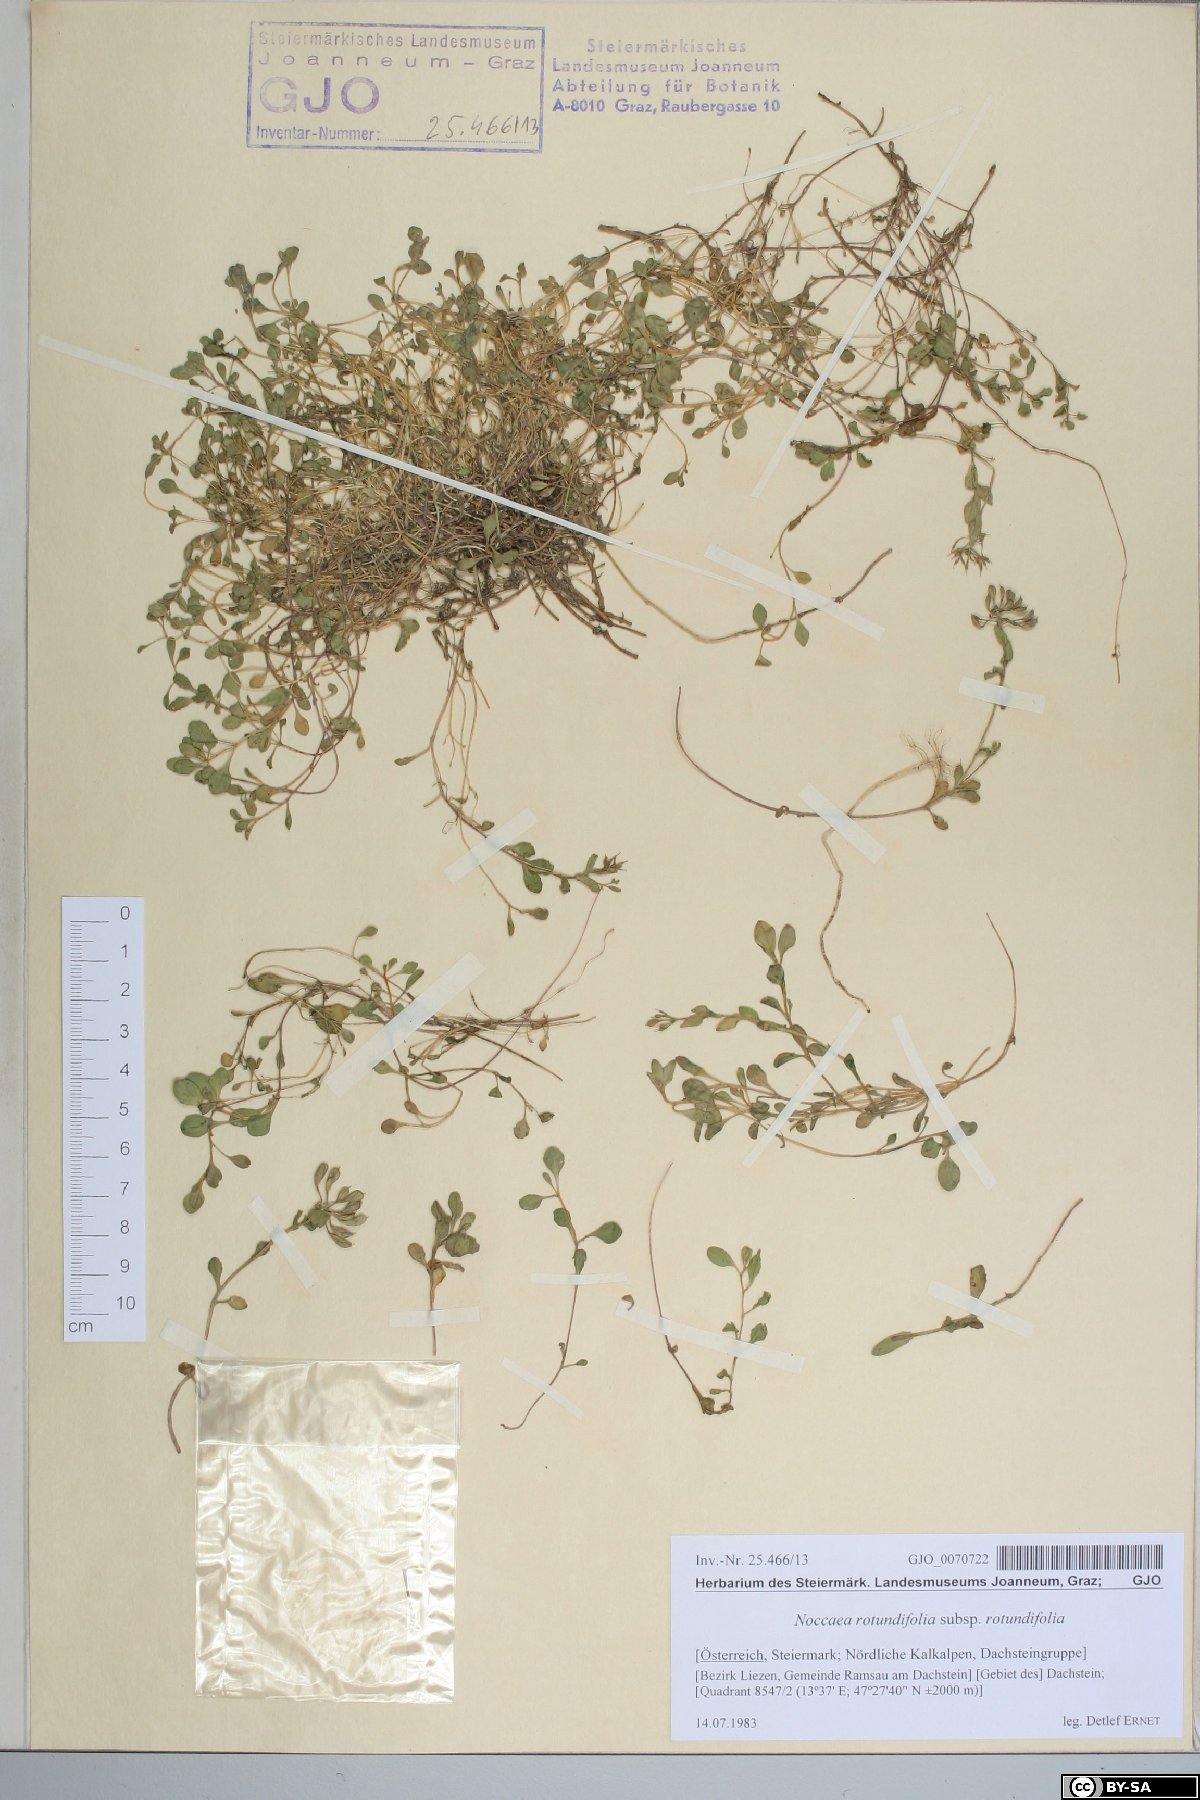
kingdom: Plantae
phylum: Tracheophyta
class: Magnoliopsida
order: Brassicales
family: Brassicaceae
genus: Noccaea
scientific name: Noccaea rotundifolia
